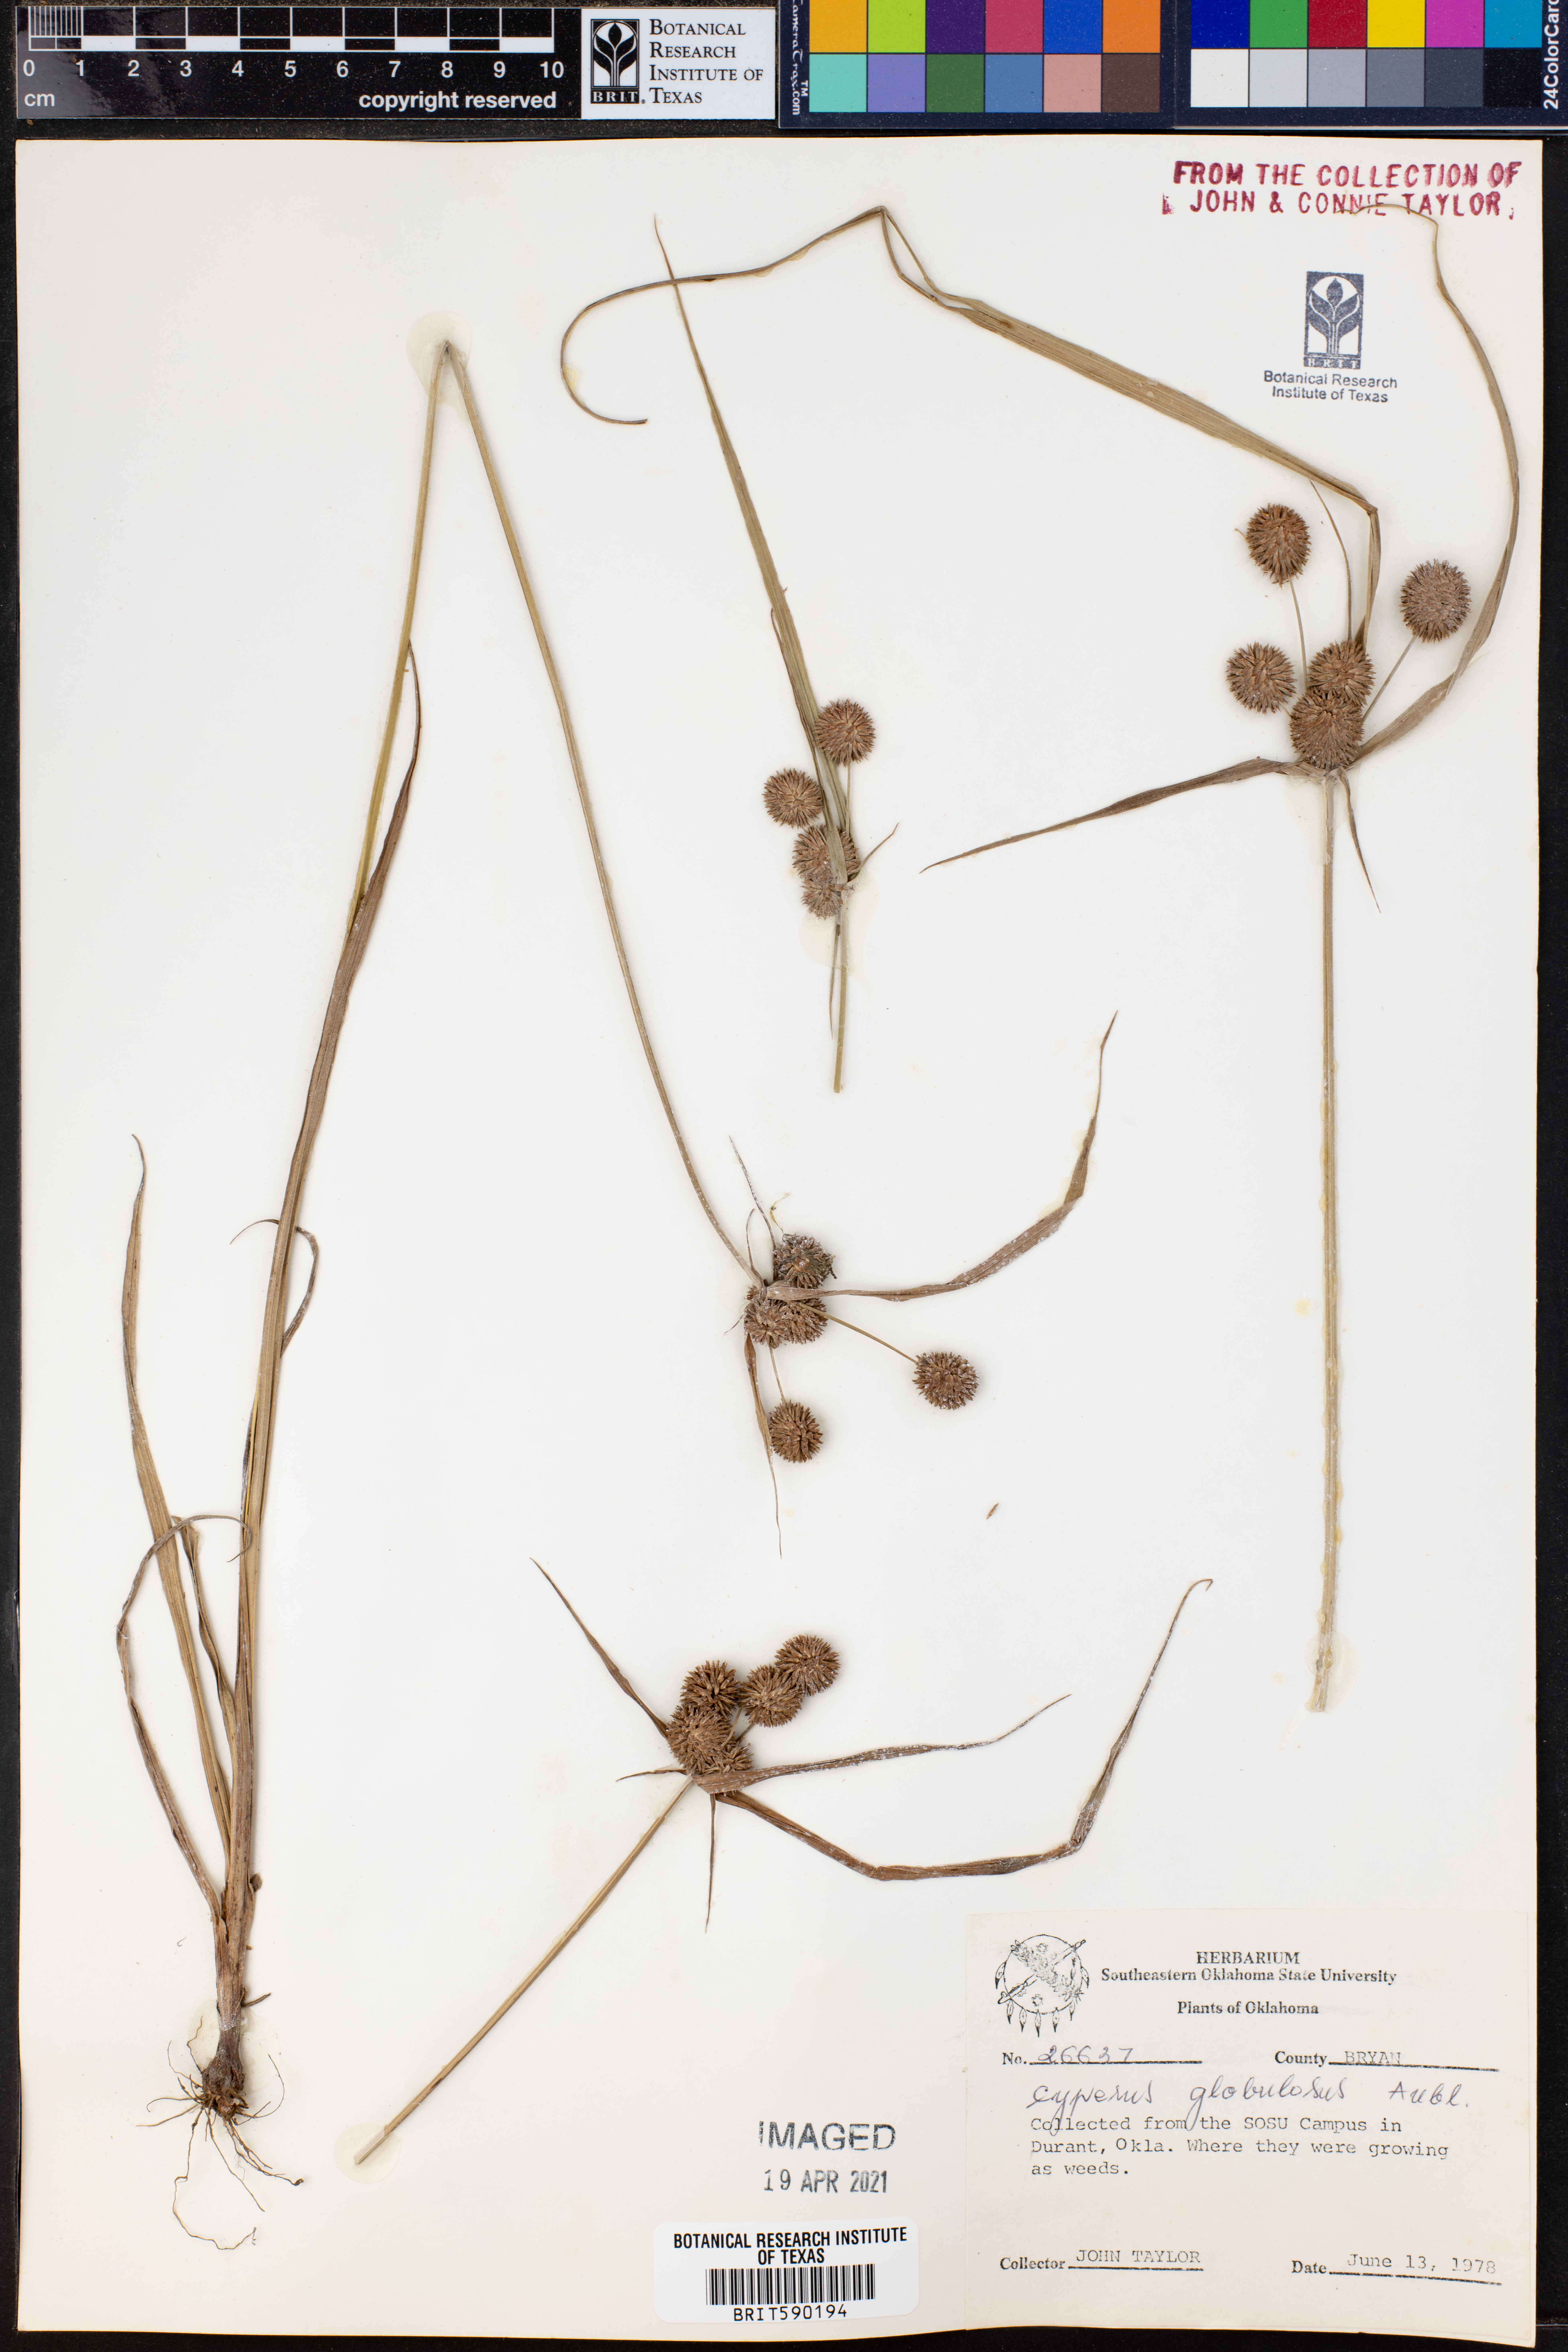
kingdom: Plantae
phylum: Tracheophyta
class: Liliopsida
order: Poales
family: Cyperaceae
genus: Cyperus
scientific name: Cyperus luzulae
